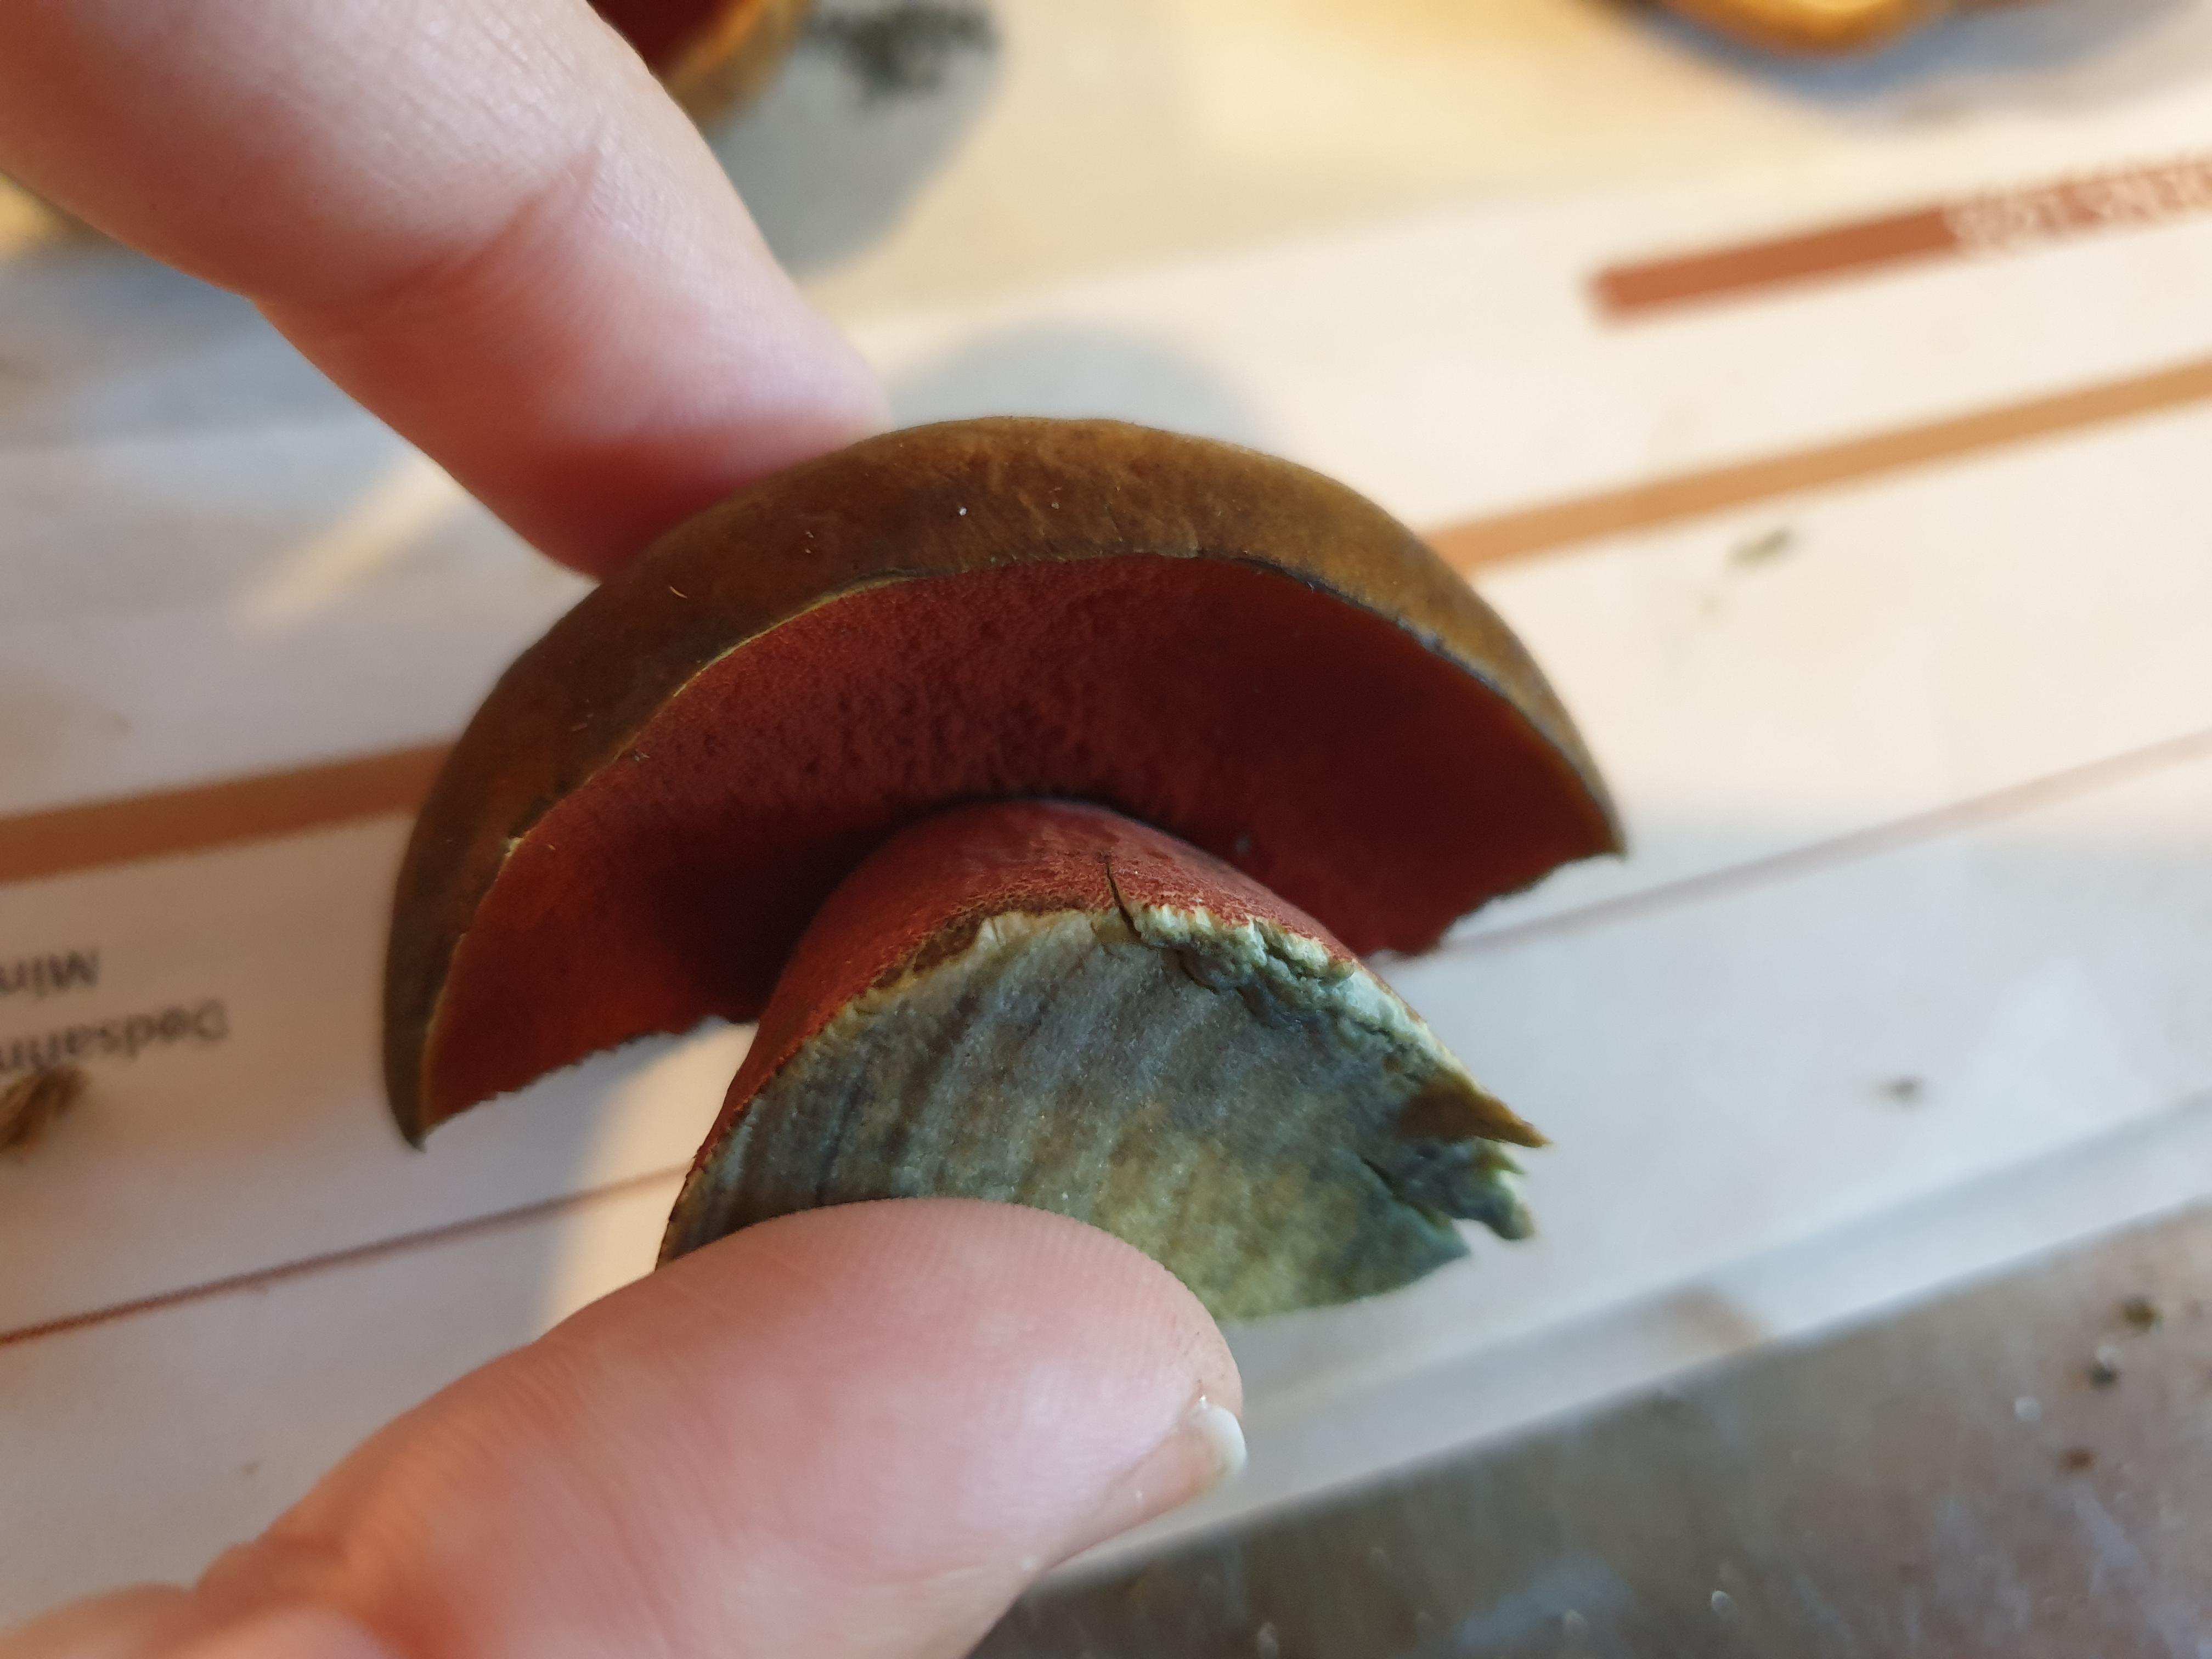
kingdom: Fungi
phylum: Basidiomycota
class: Agaricomycetes
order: Boletales
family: Boletaceae
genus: Neoboletus
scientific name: Neoboletus erythropus
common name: punktstokket indigorørhat
